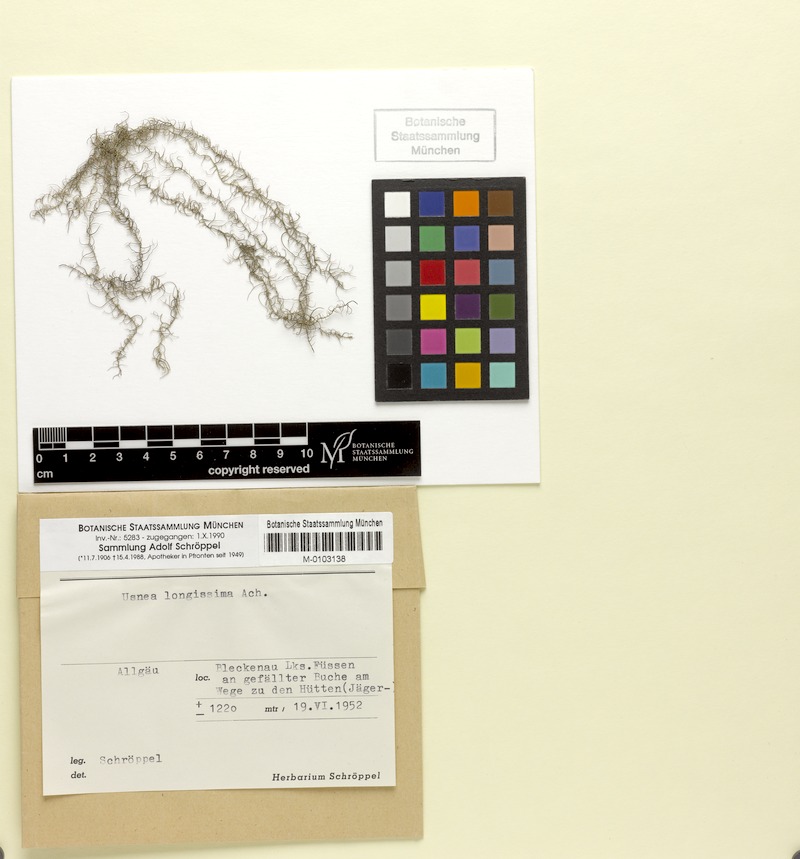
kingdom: Fungi
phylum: Ascomycota
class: Lecanoromycetes
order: Lecanorales
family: Parmeliaceae
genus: Dolichousnea
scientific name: Dolichousnea longissima
